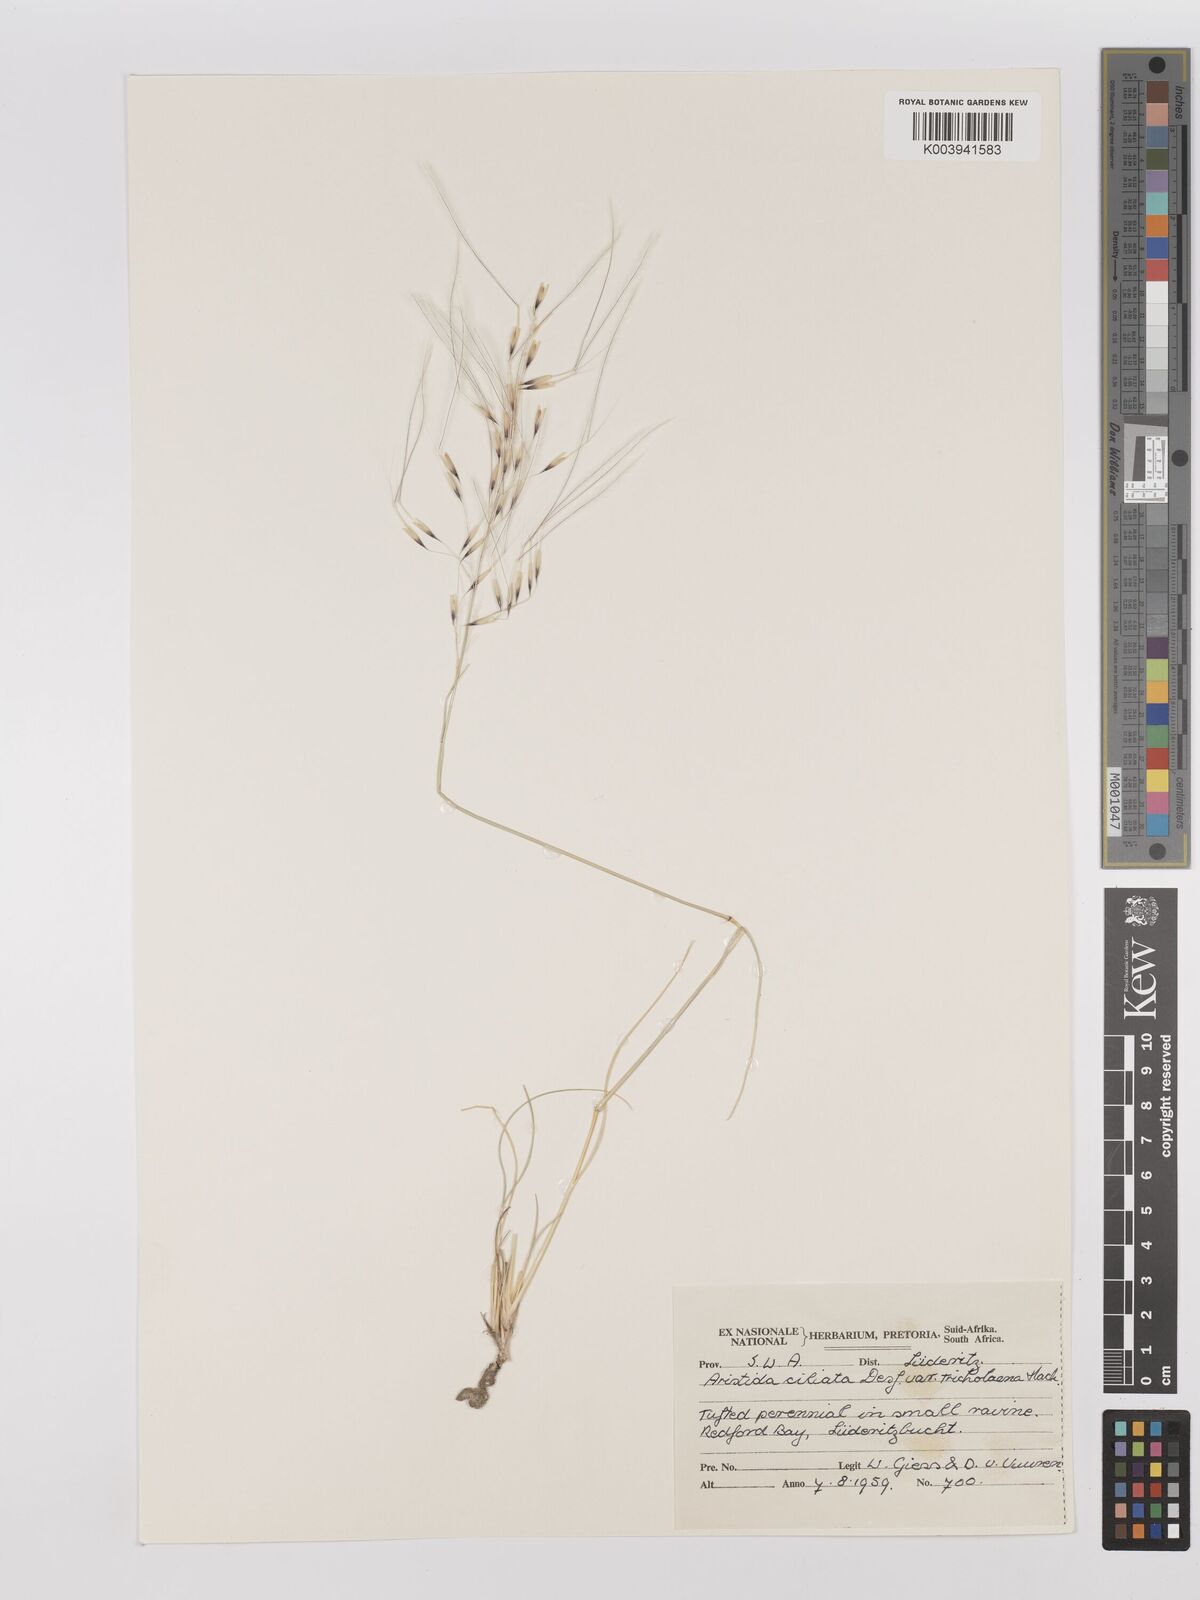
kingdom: Plantae
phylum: Tracheophyta
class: Liliopsida
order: Poales
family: Poaceae
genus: Stipagrostis
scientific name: Stipagrostis ciliata
